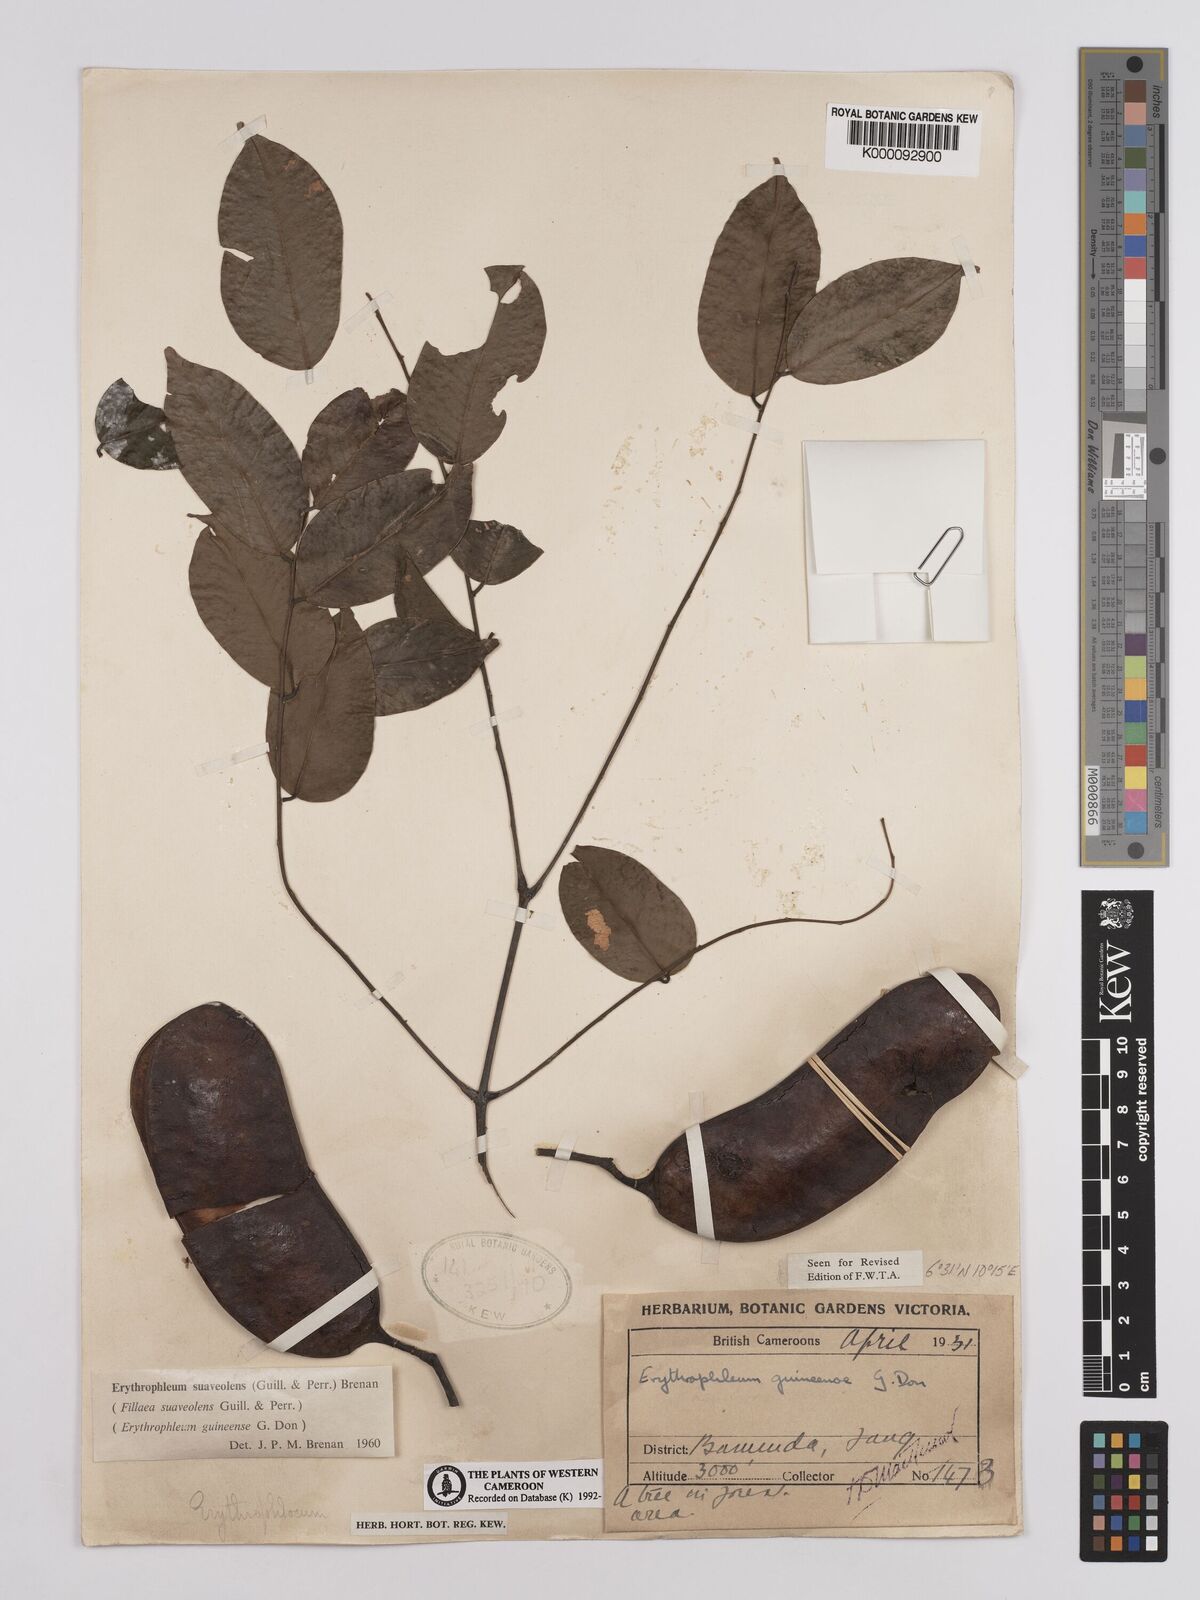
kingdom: Plantae
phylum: Tracheophyta
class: Magnoliopsida
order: Fabales
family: Fabaceae
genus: Erythrophleum
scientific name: Erythrophleum suaveolens
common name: Ordeal tree
